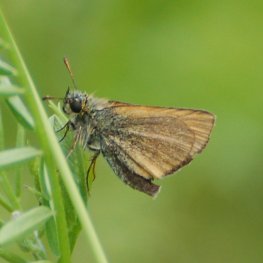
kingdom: Animalia
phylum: Arthropoda
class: Insecta
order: Lepidoptera
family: Hesperiidae
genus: Thymelicus
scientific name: Thymelicus lineola
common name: European Skipper
